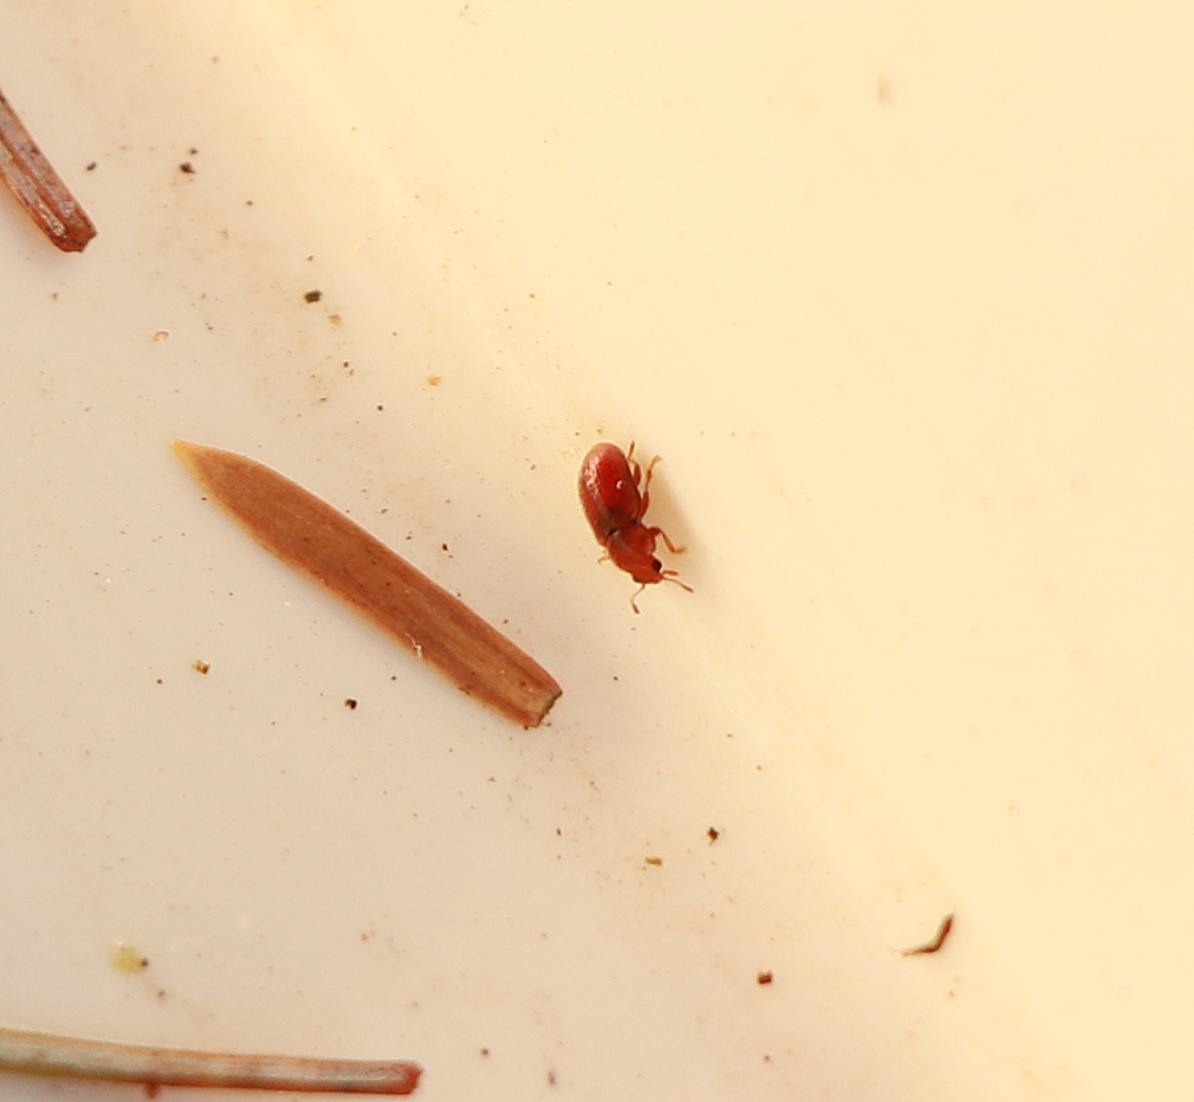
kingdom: Animalia
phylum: Arthropoda
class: Insecta
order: Coleoptera
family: Coccinellidae
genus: Coccidula
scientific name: Coccidula rufa
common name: Slank mariehøne
